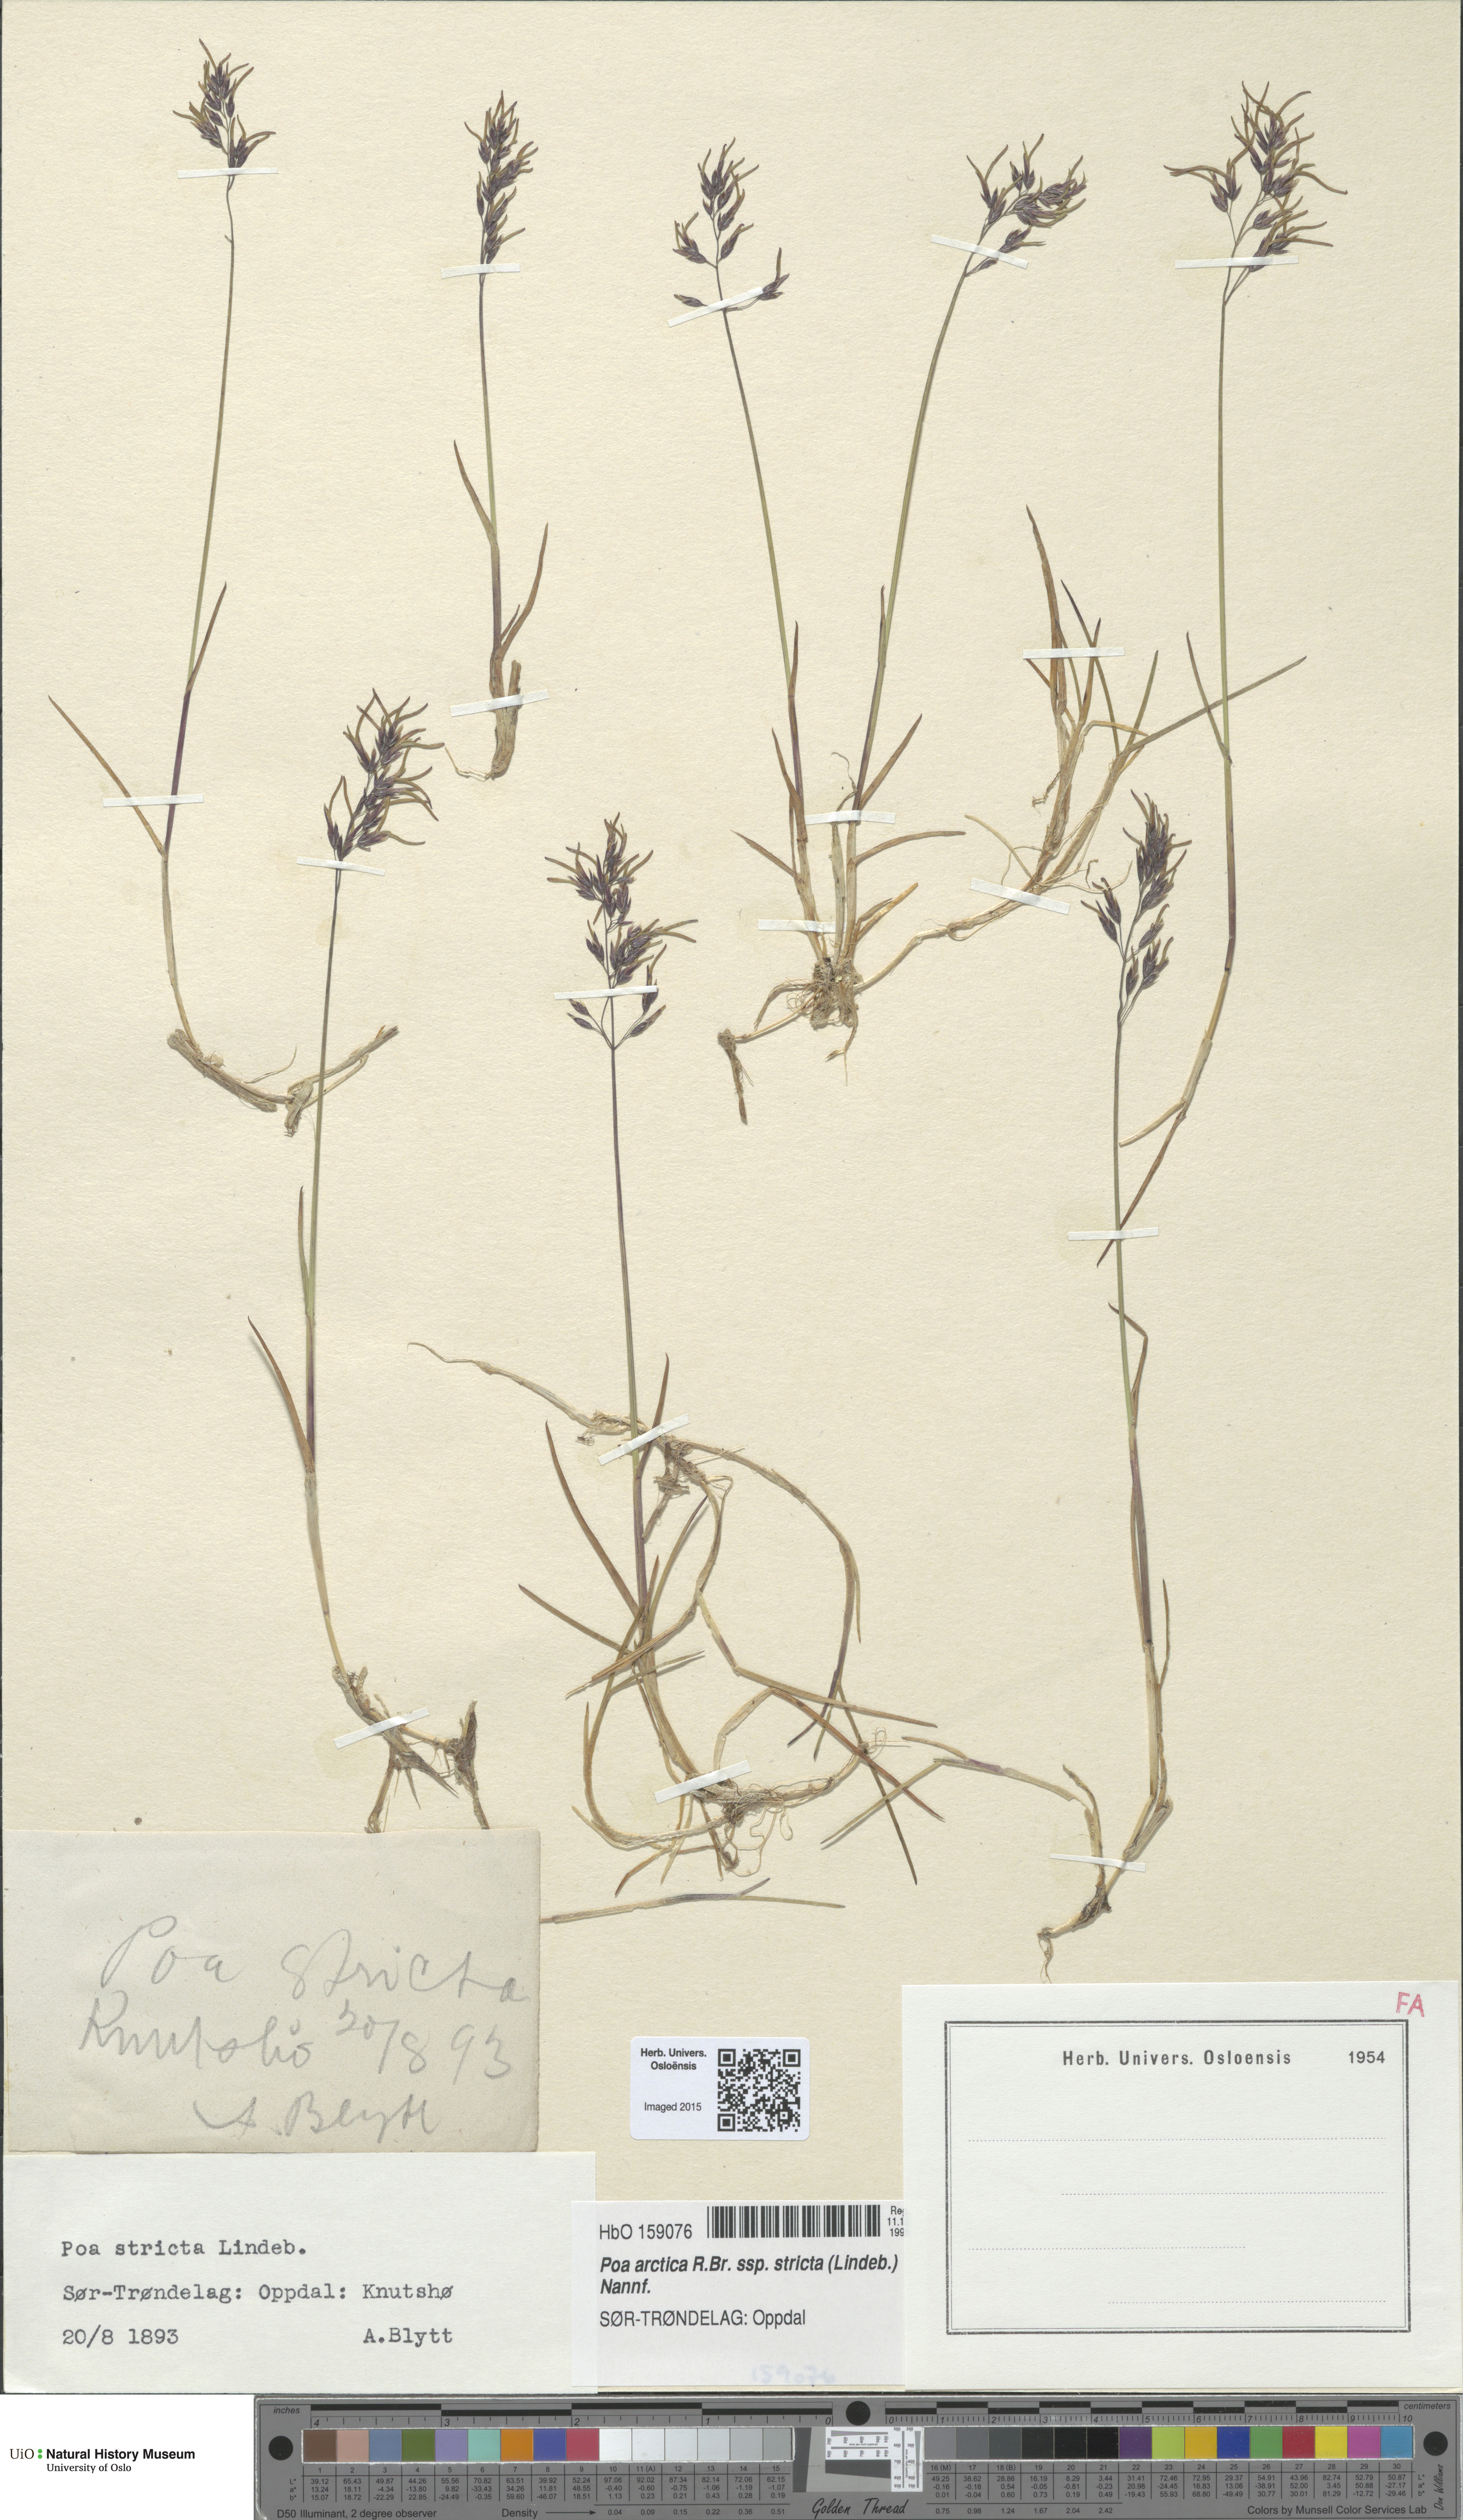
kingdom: Plantae
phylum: Tracheophyta
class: Liliopsida
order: Poales
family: Poaceae
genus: Poa
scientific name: Poa lindebergii
